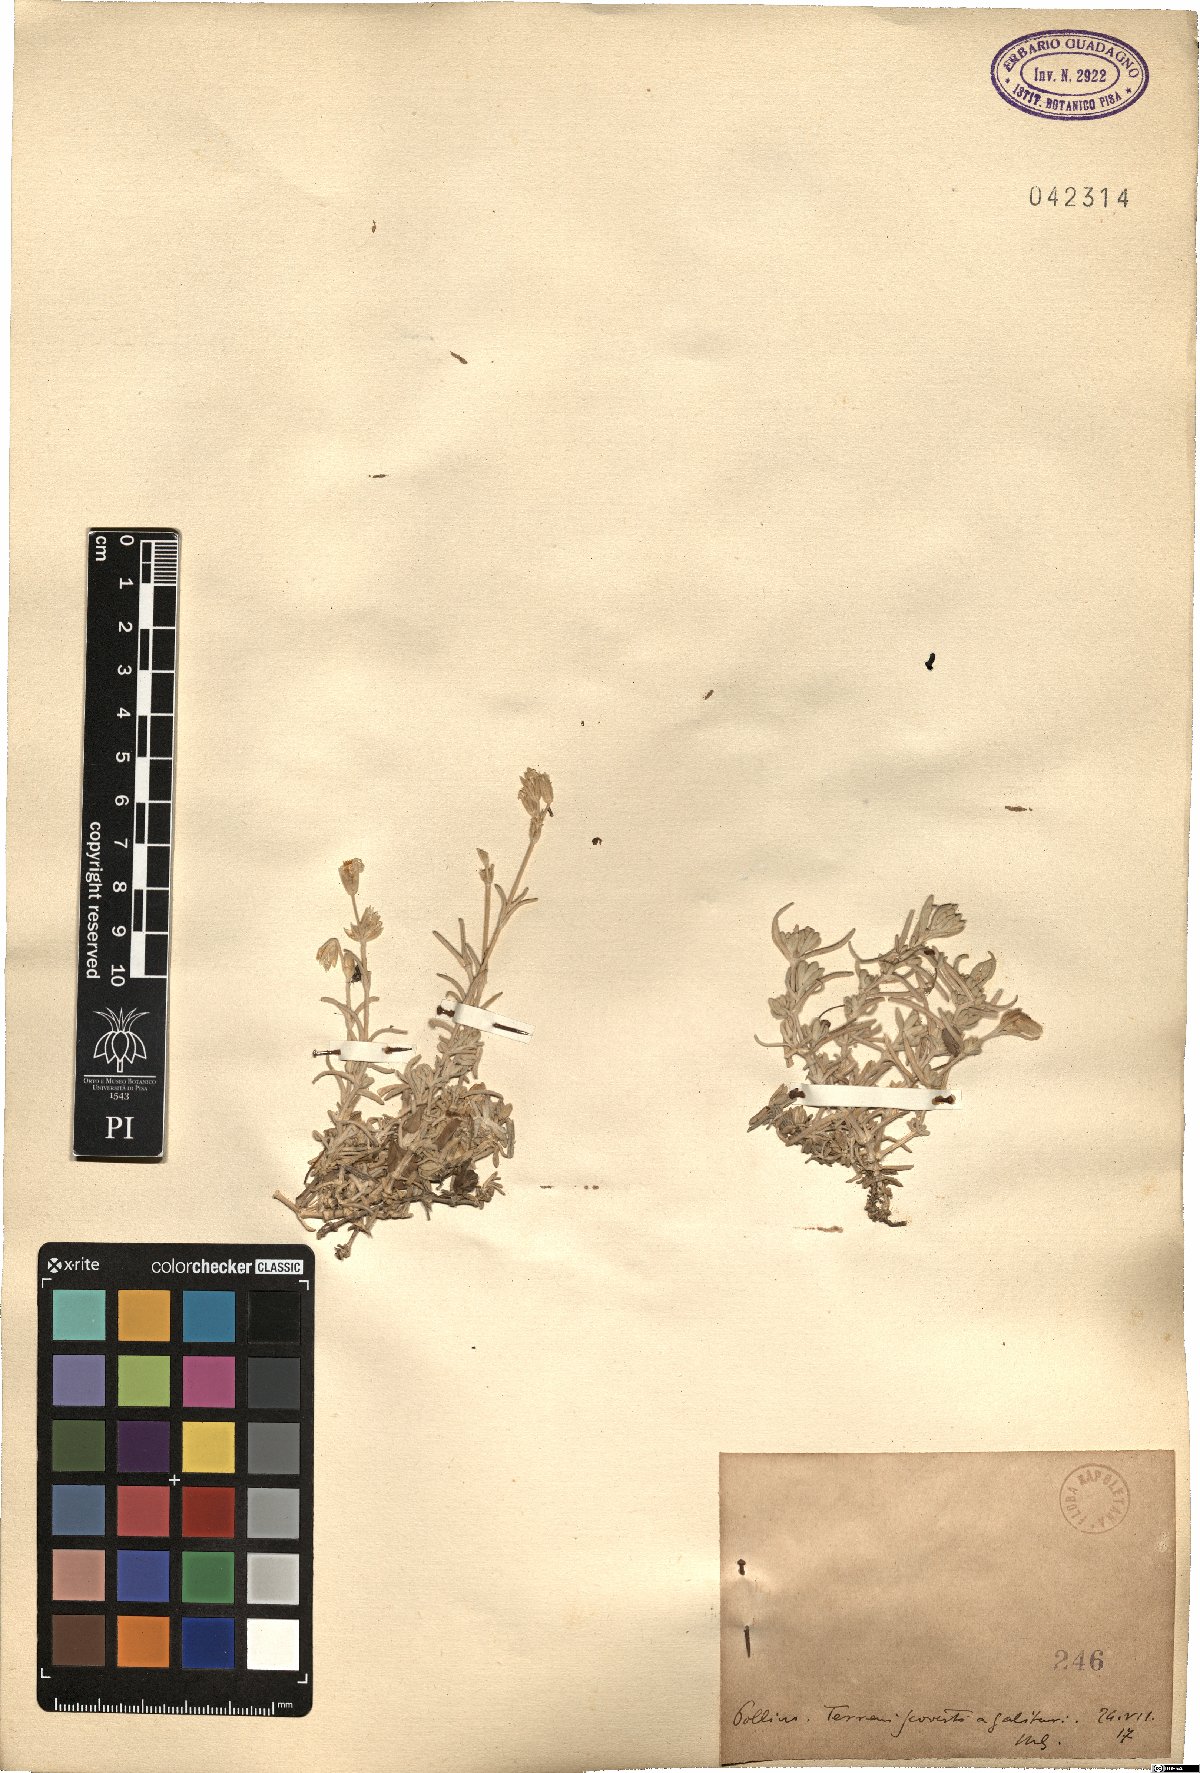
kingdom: Plantae
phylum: Tracheophyta
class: Magnoliopsida
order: Caryophyllales
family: Caryophyllaceae
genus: Cerastium
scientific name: Cerastium
